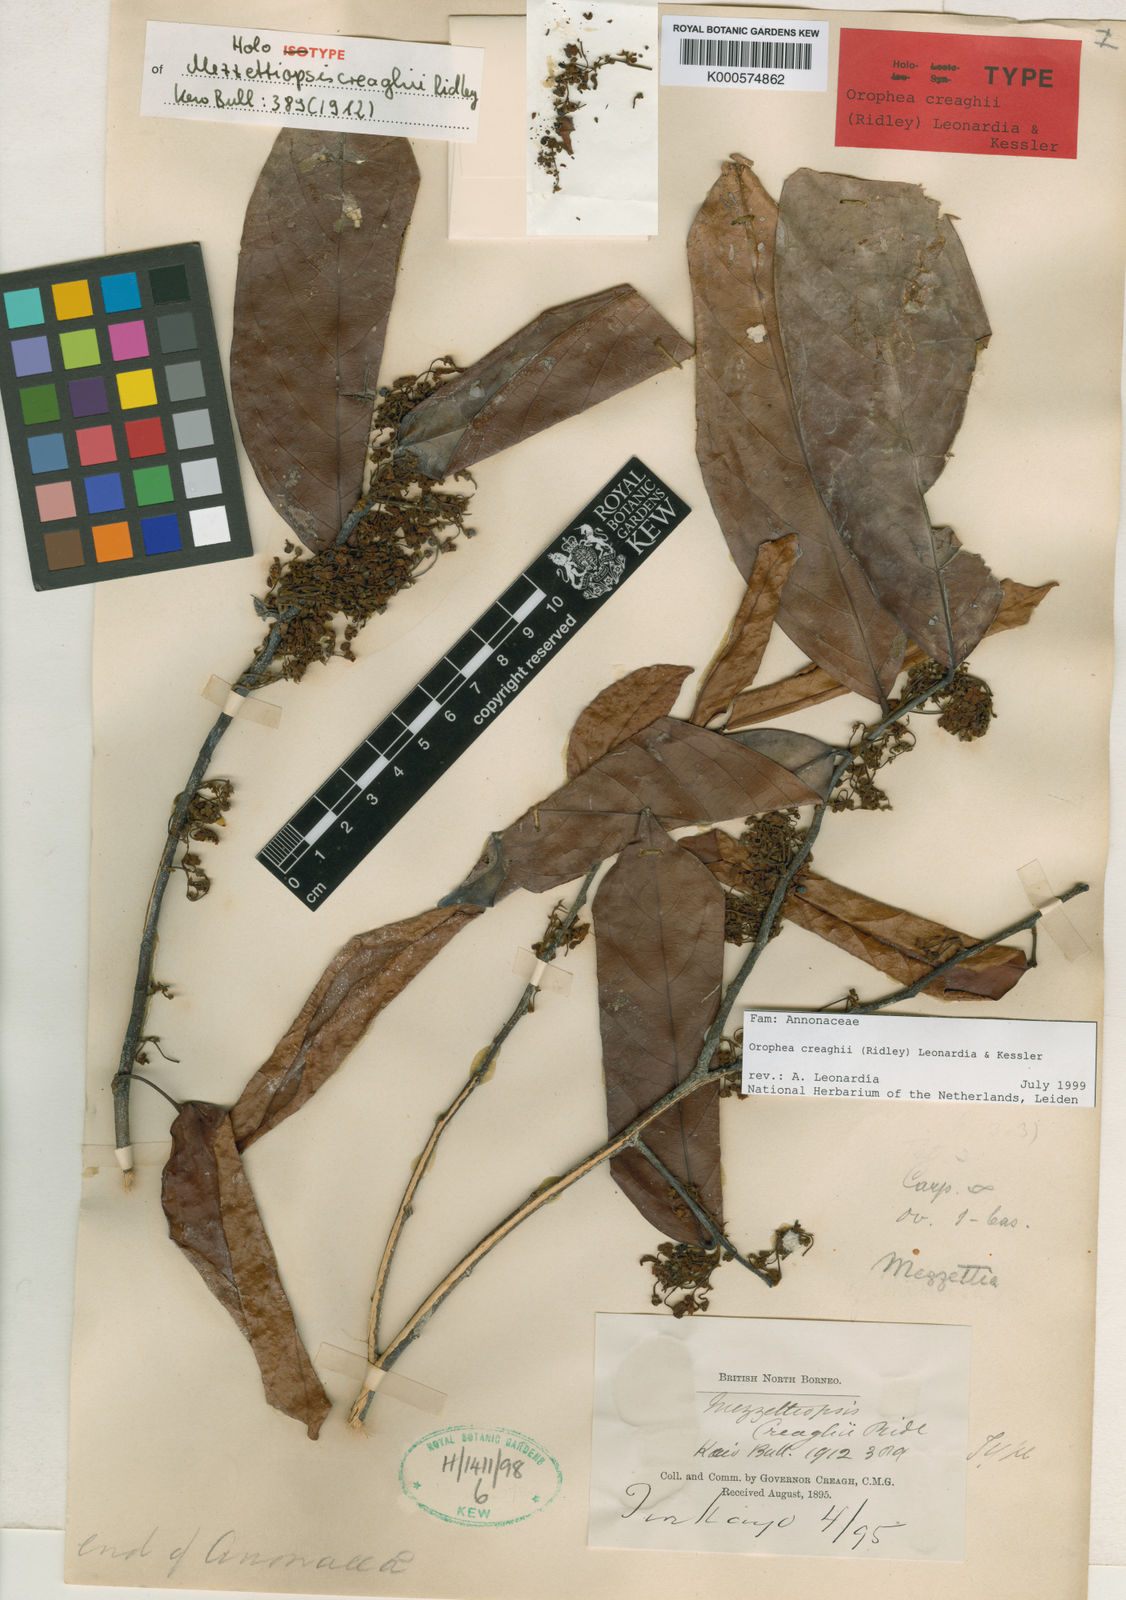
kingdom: Plantae
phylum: Tracheophyta
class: Magnoliopsida
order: Magnoliales
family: Annonaceae
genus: Orophea
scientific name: Orophea
